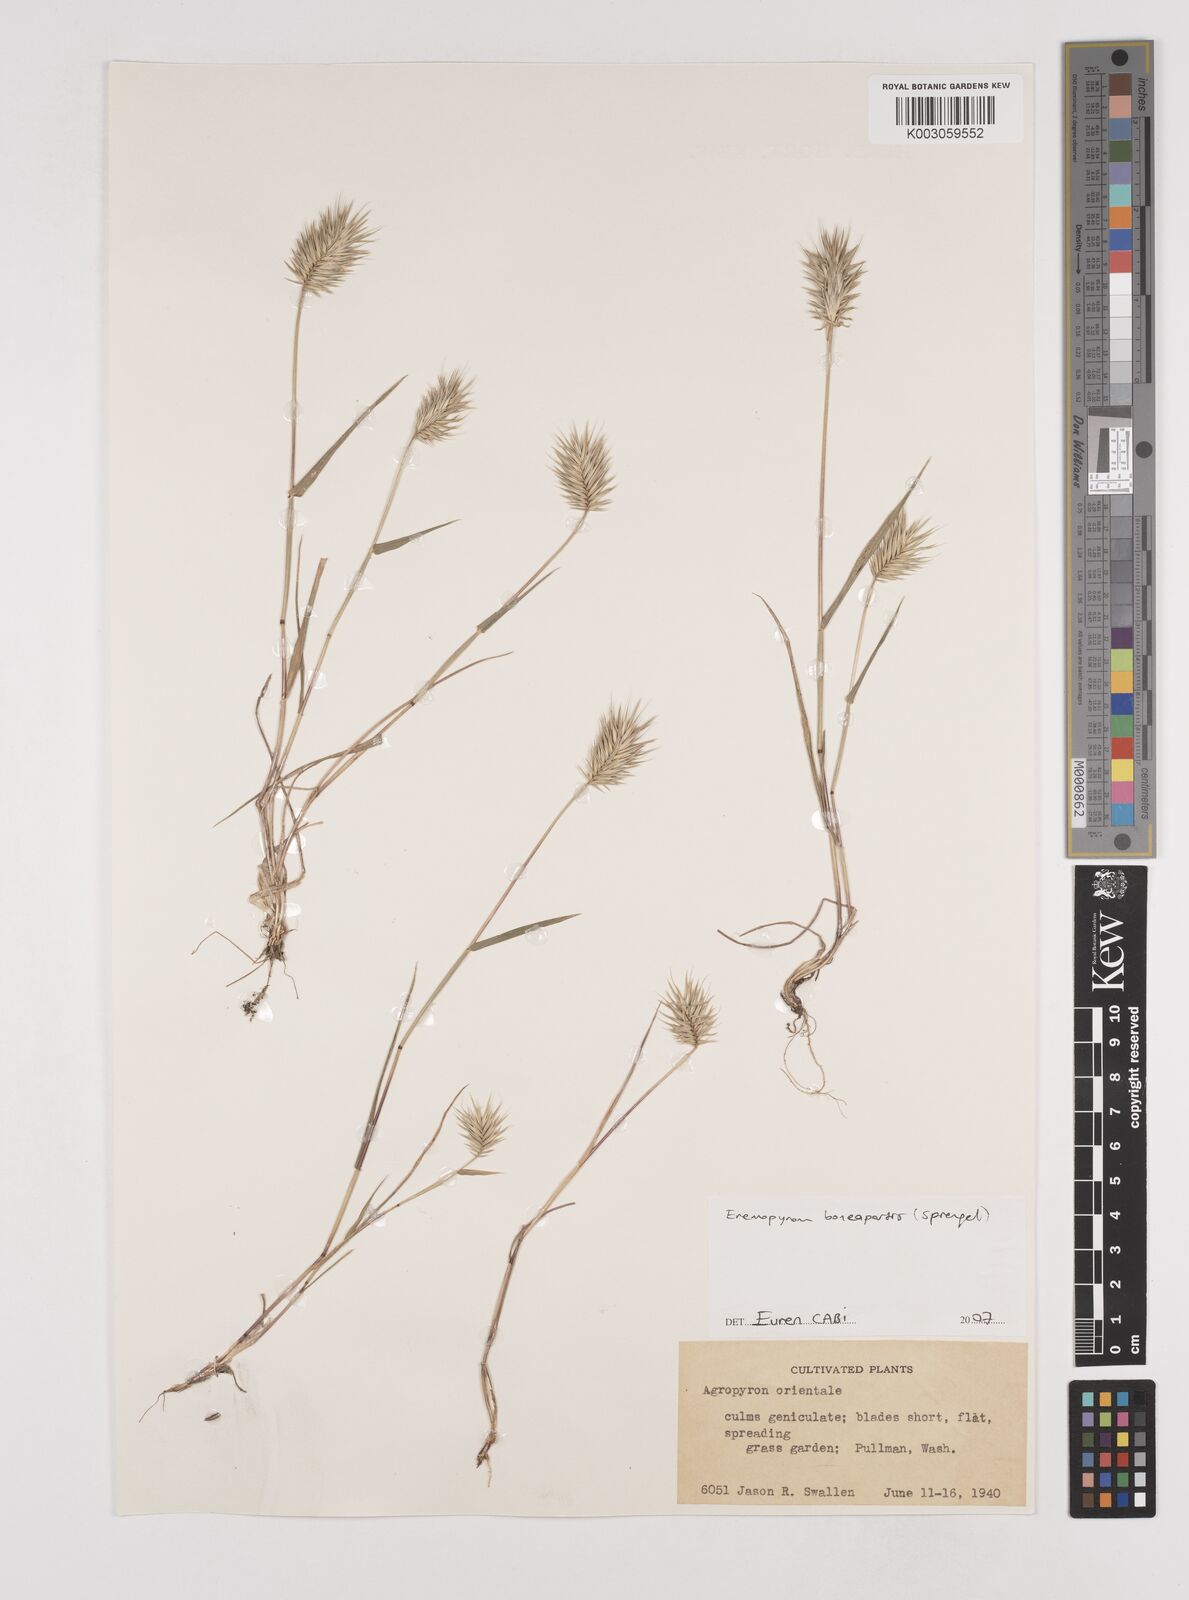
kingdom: Plantae
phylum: Tracheophyta
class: Liliopsida
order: Poales
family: Poaceae
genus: Eremopyrum
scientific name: Eremopyrum bonaepartis
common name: Tapertip false wheatgrass
